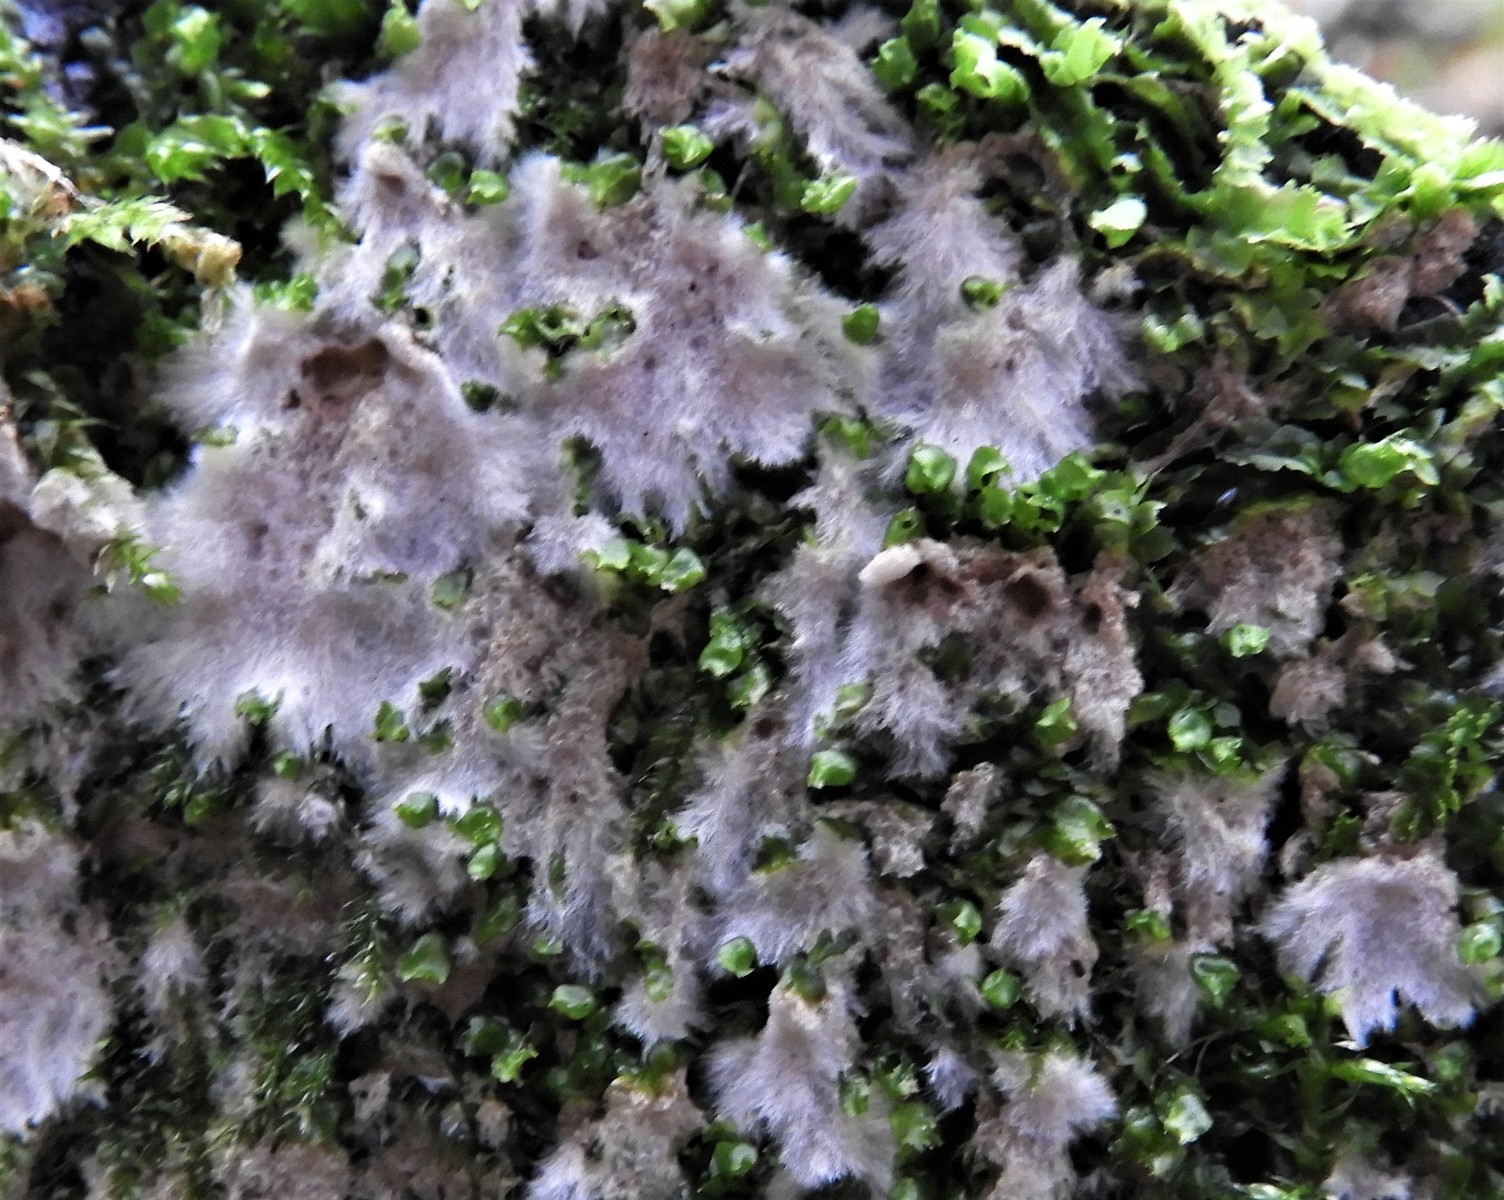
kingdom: Fungi
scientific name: Fungi
